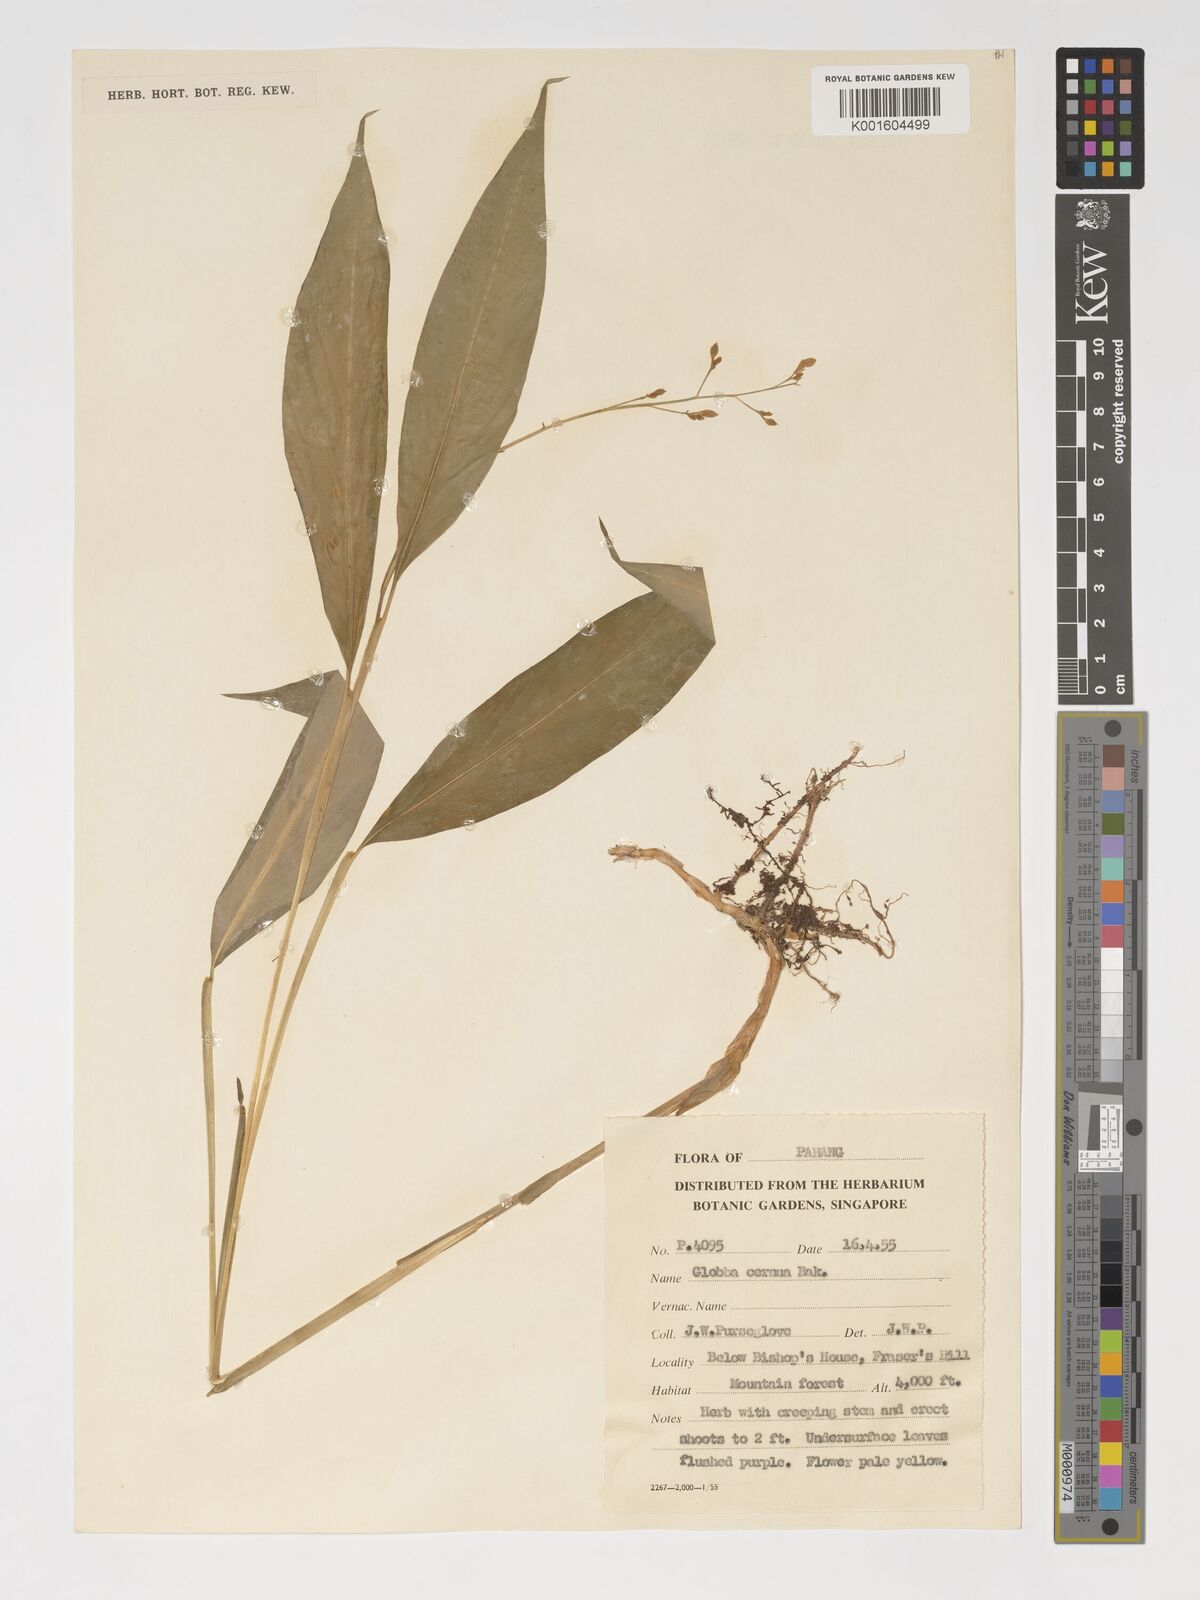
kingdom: Plantae
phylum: Tracheophyta
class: Liliopsida
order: Zingiberales
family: Zingiberaceae
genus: Globba
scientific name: Globba cernua
